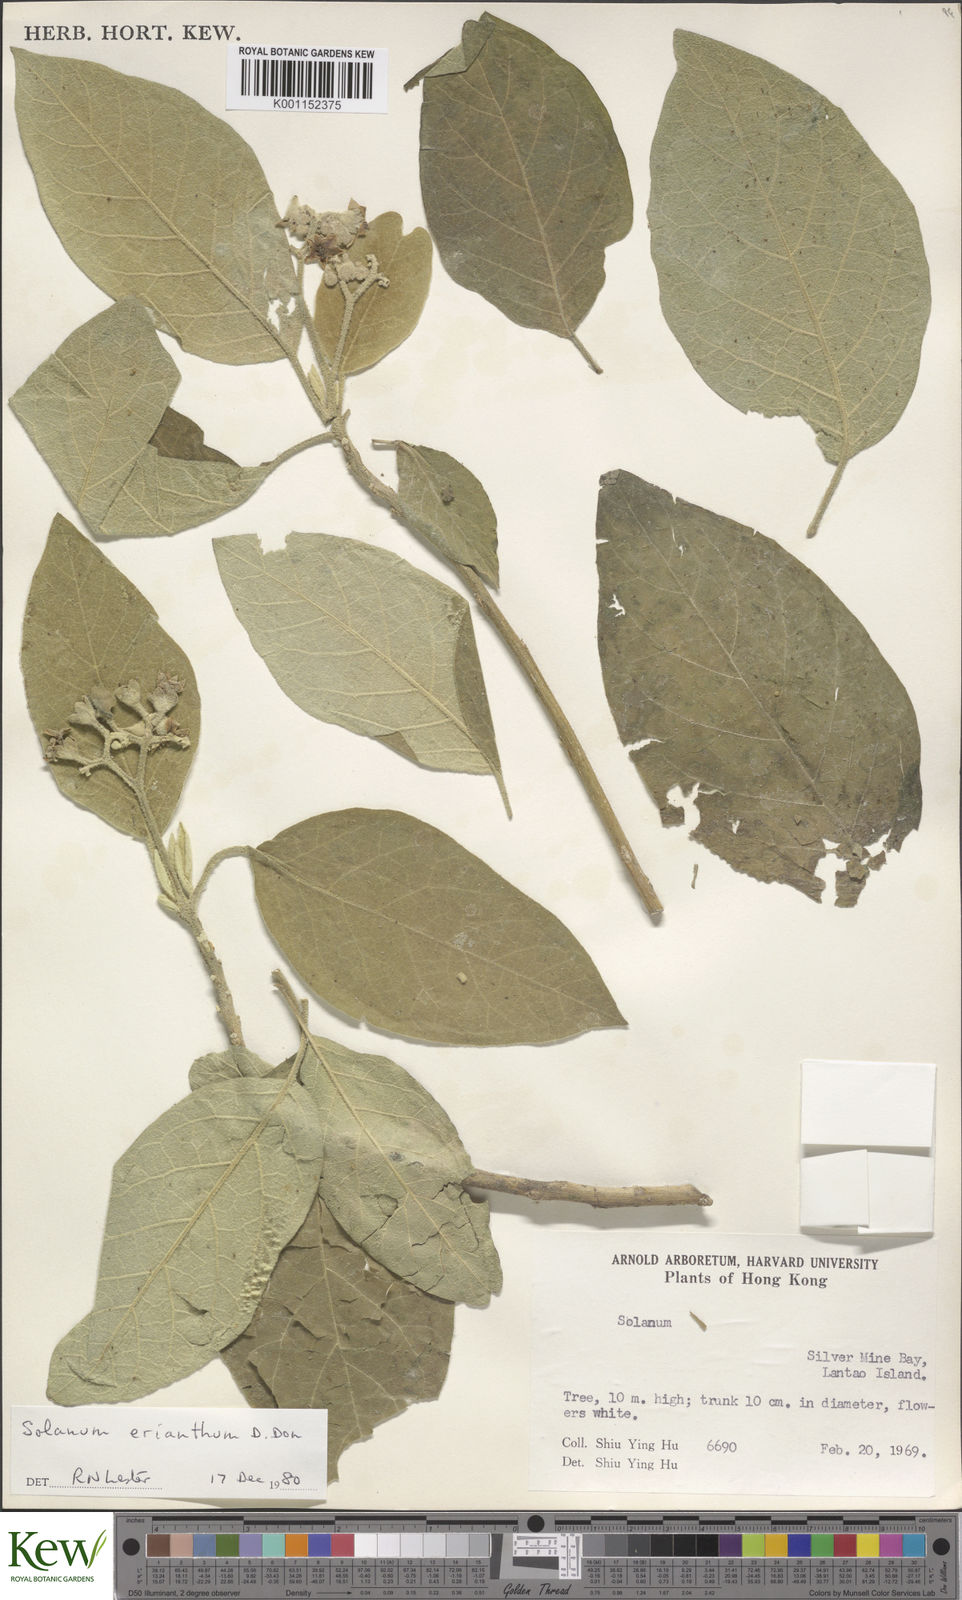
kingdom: Plantae
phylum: Tracheophyta
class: Magnoliopsida
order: Solanales
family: Solanaceae
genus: Solanum
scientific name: Solanum erianthum
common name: Tobacco-tree
